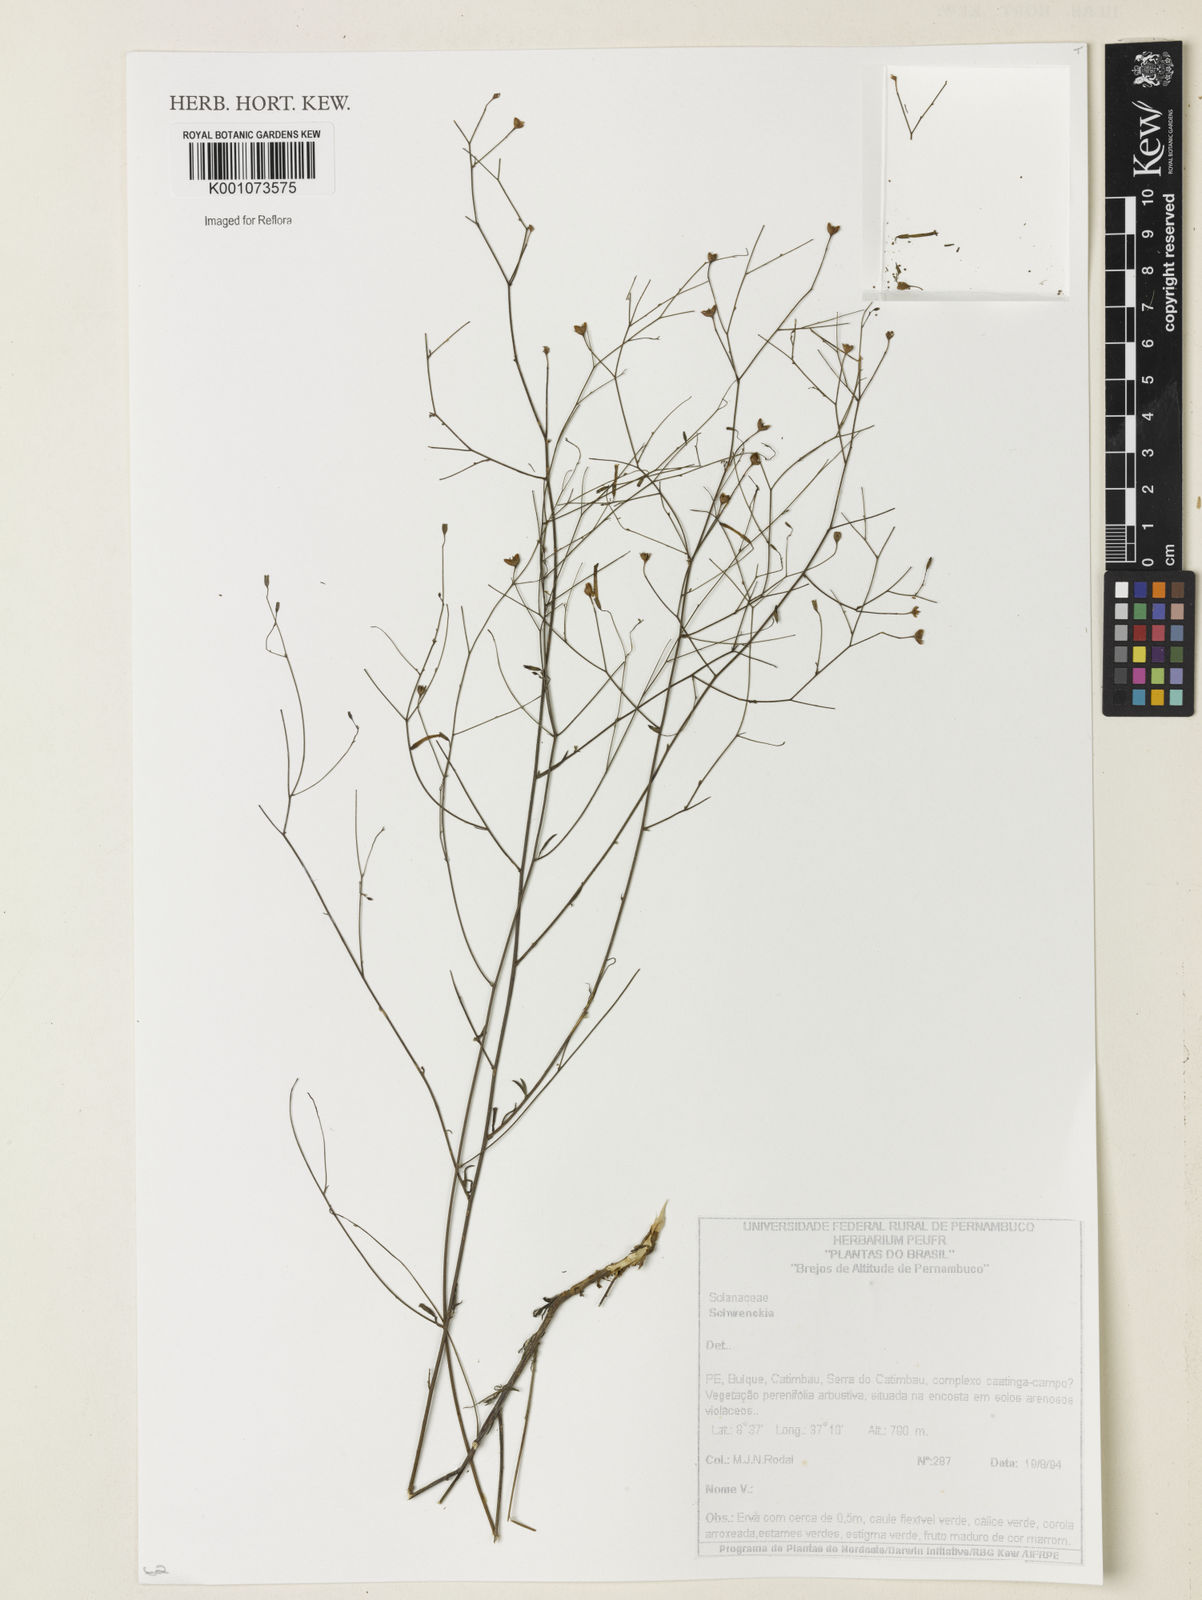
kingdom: Plantae
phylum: Tracheophyta
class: Magnoliopsida
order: Solanales
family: Solanaceae
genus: Schwenckia
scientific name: Schwenckia
